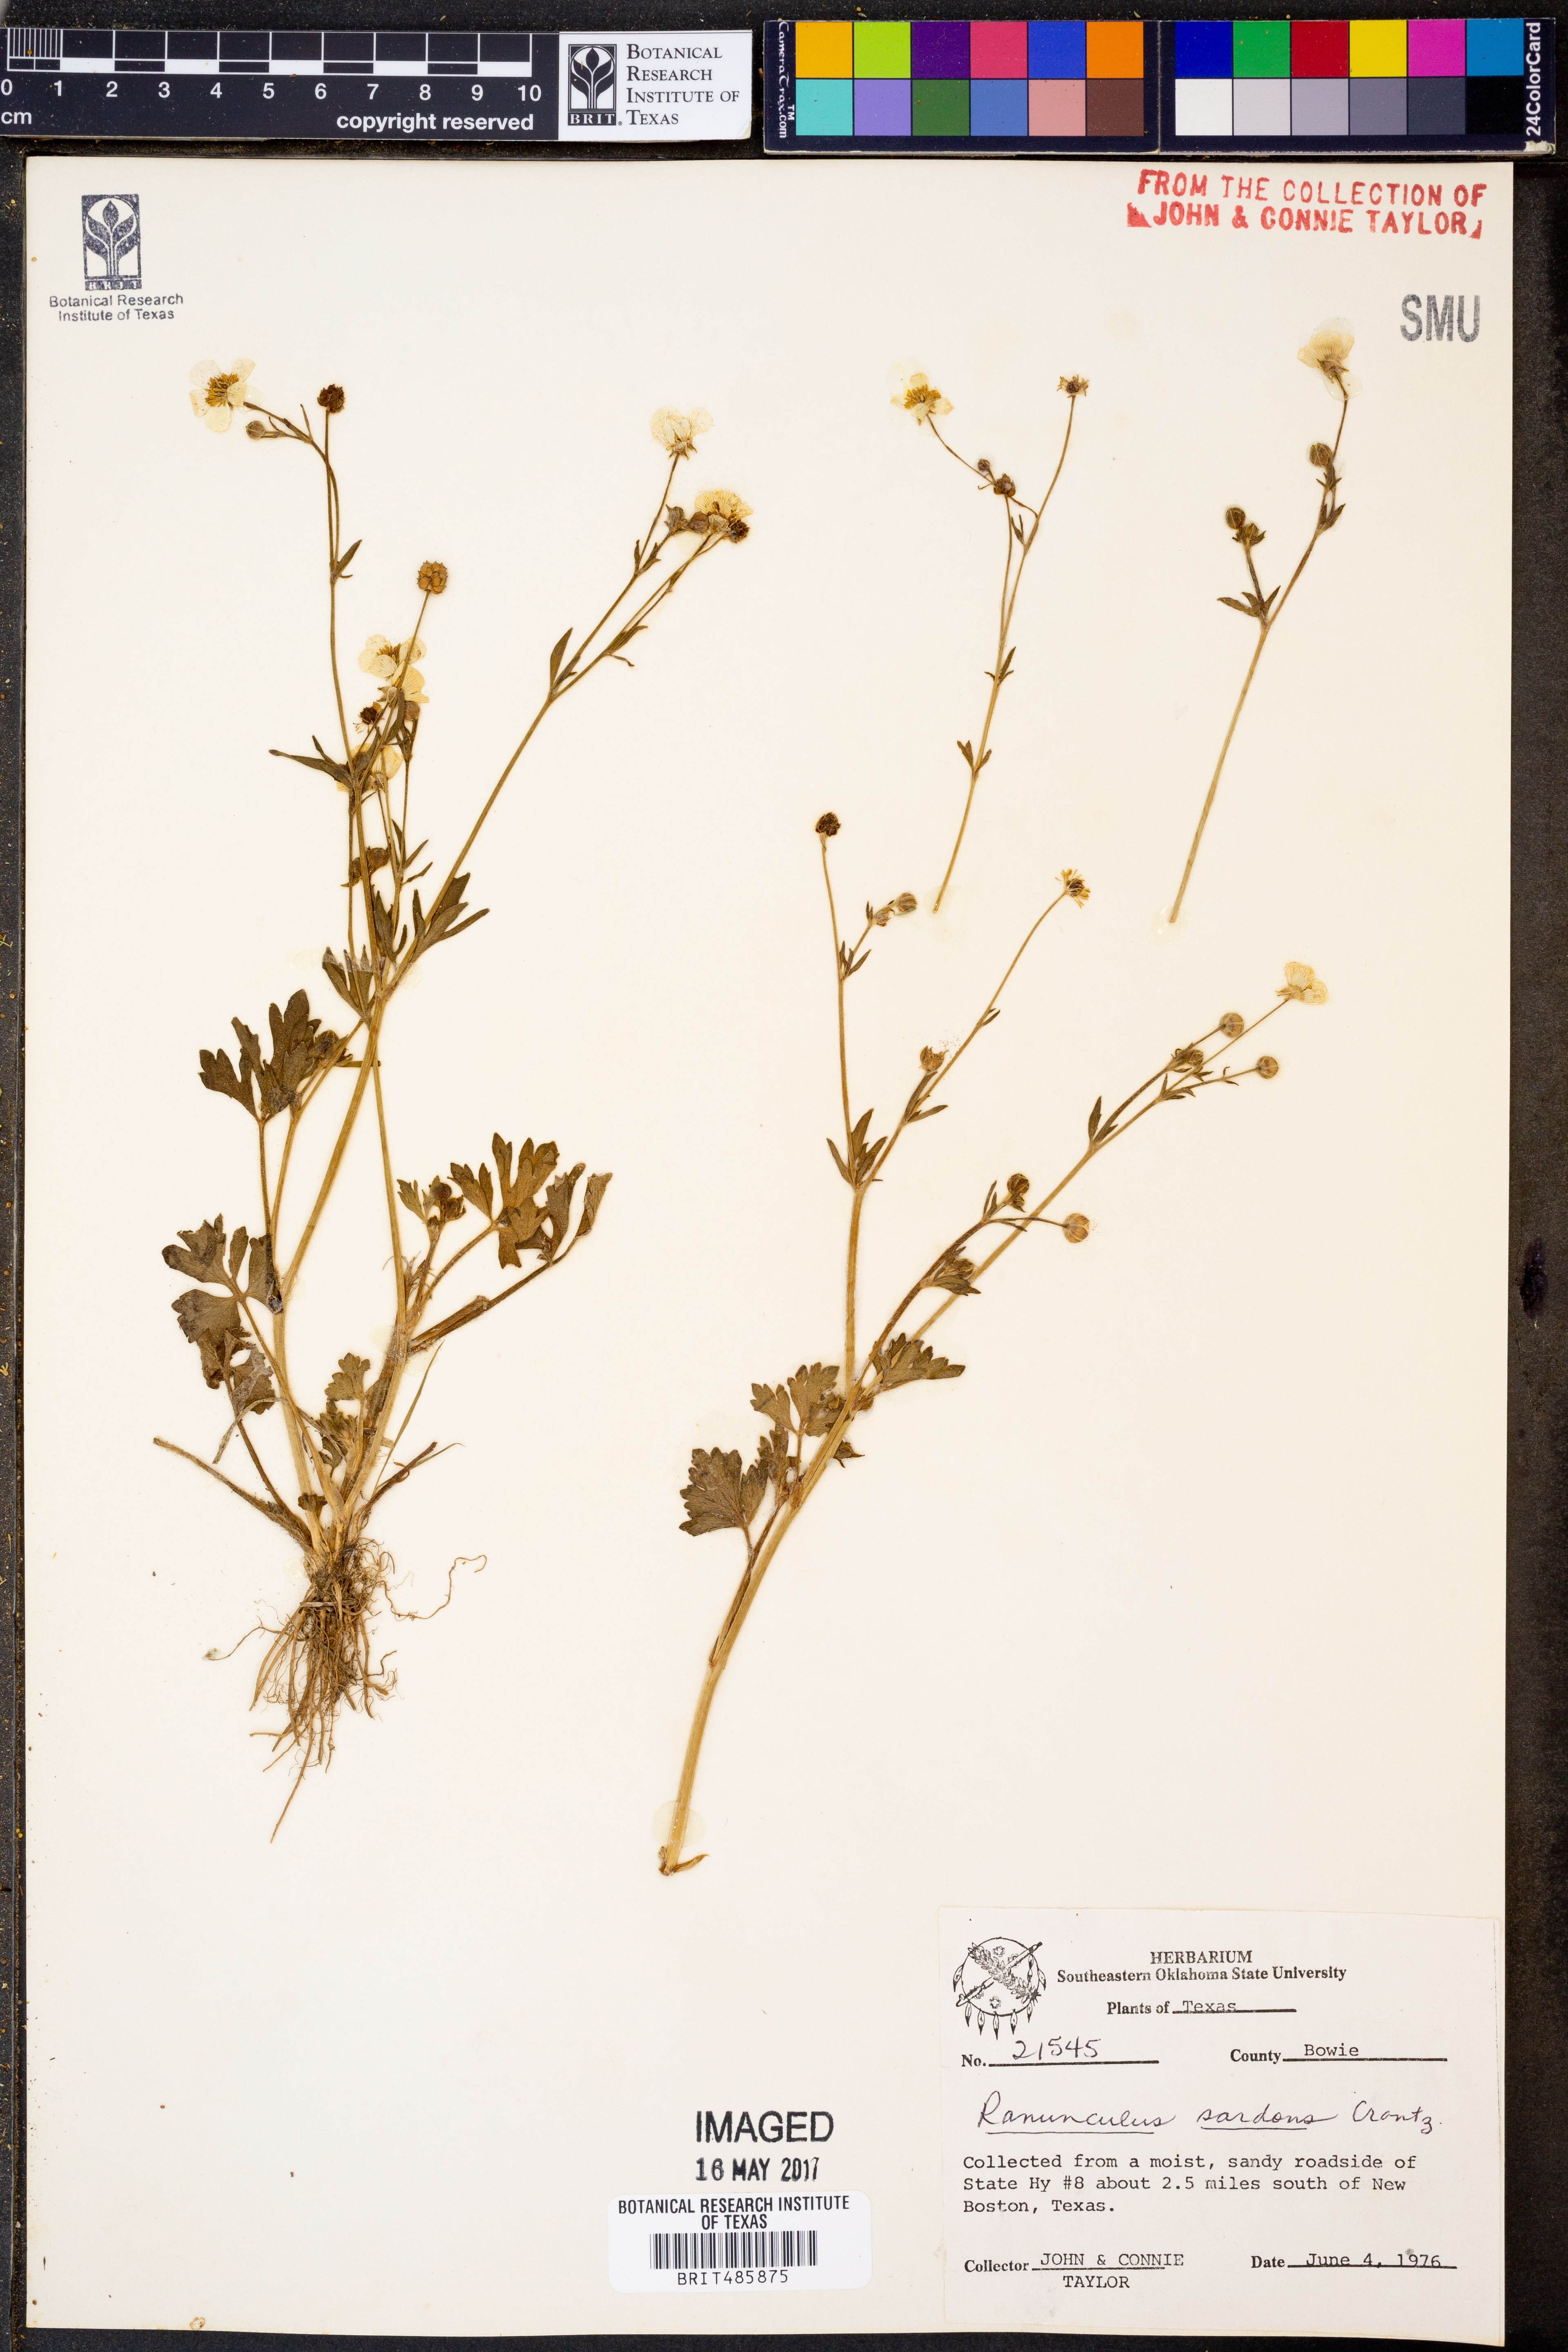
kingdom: Plantae
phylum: Tracheophyta
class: Magnoliopsida
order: Ranunculales
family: Ranunculaceae
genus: Ranunculus
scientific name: Ranunculus sardous
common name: Hairy buttercup
